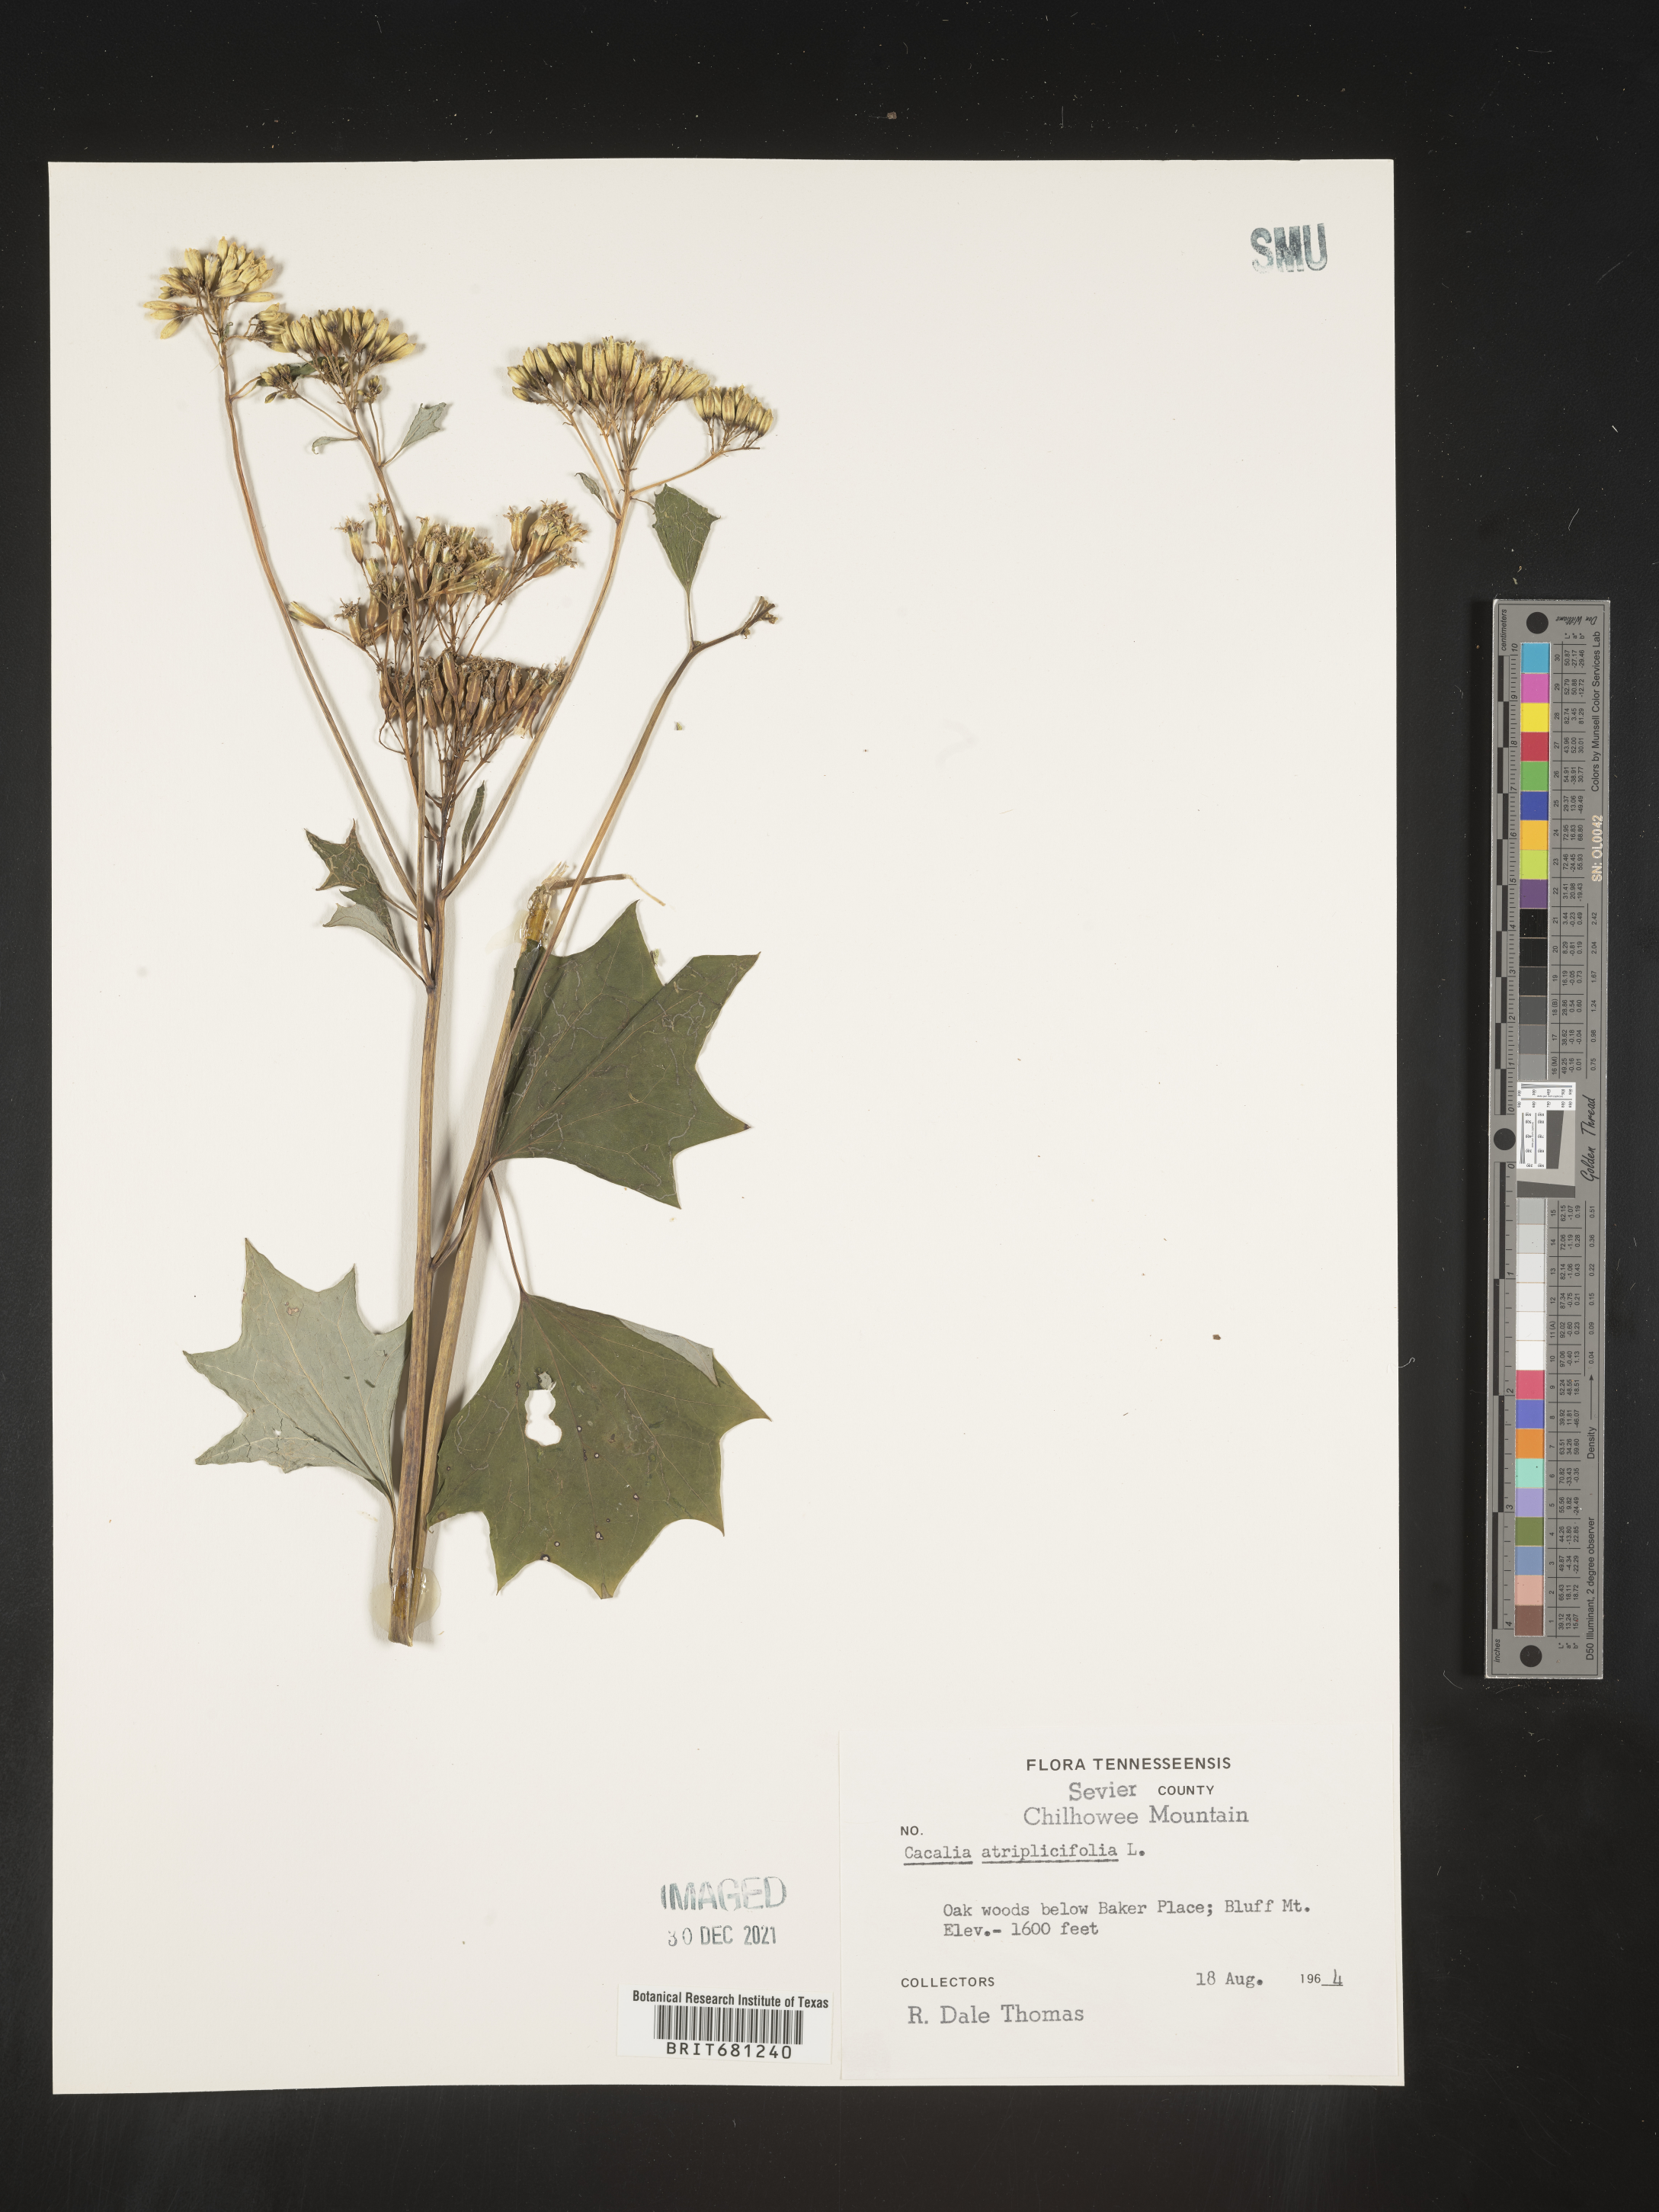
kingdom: Plantae
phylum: Tracheophyta
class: Magnoliopsida
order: Asterales
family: Asteraceae
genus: Arnoglossum
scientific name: Arnoglossum atriplicifolium
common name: Pale indian-plantain
